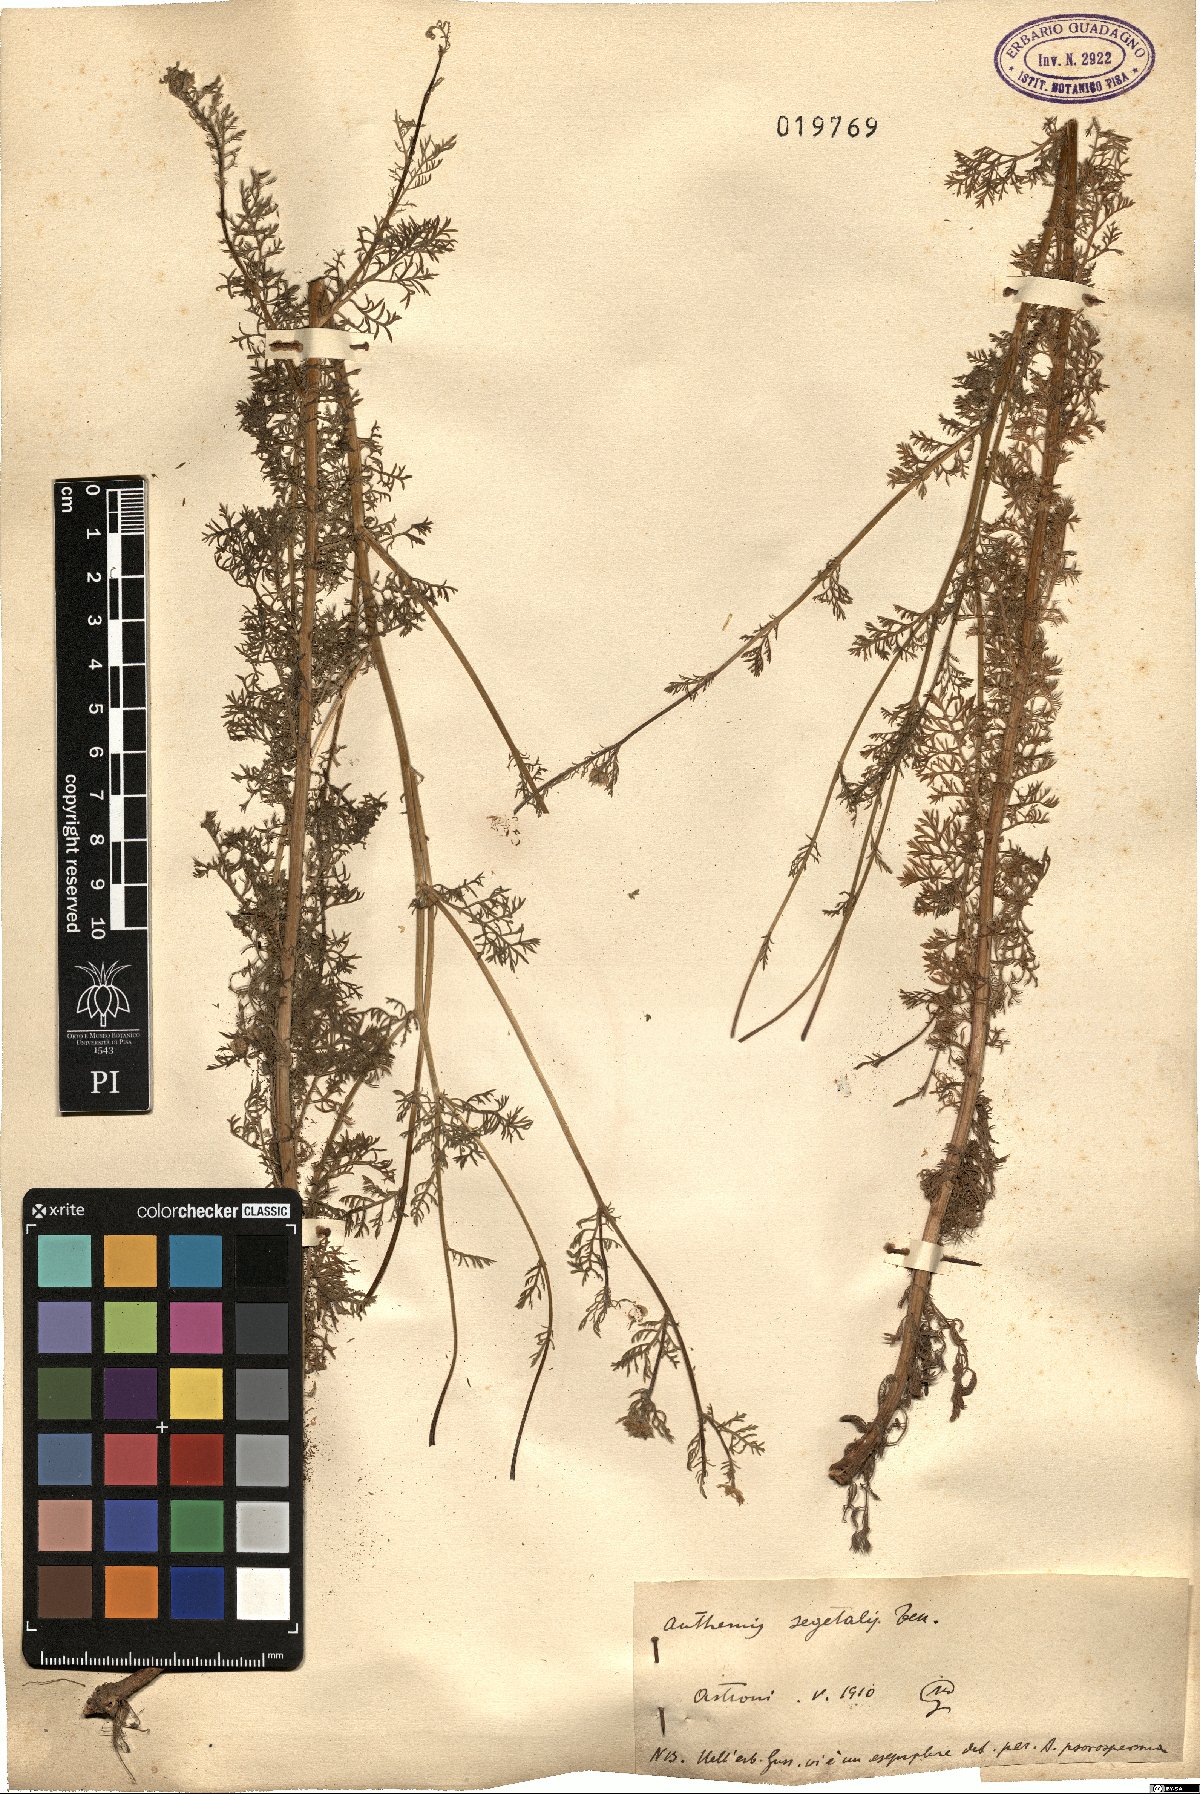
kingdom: Plantae
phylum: Tracheophyta
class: Magnoliopsida
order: Asterales
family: Asteraceae
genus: Cota
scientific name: Cota segetalis
